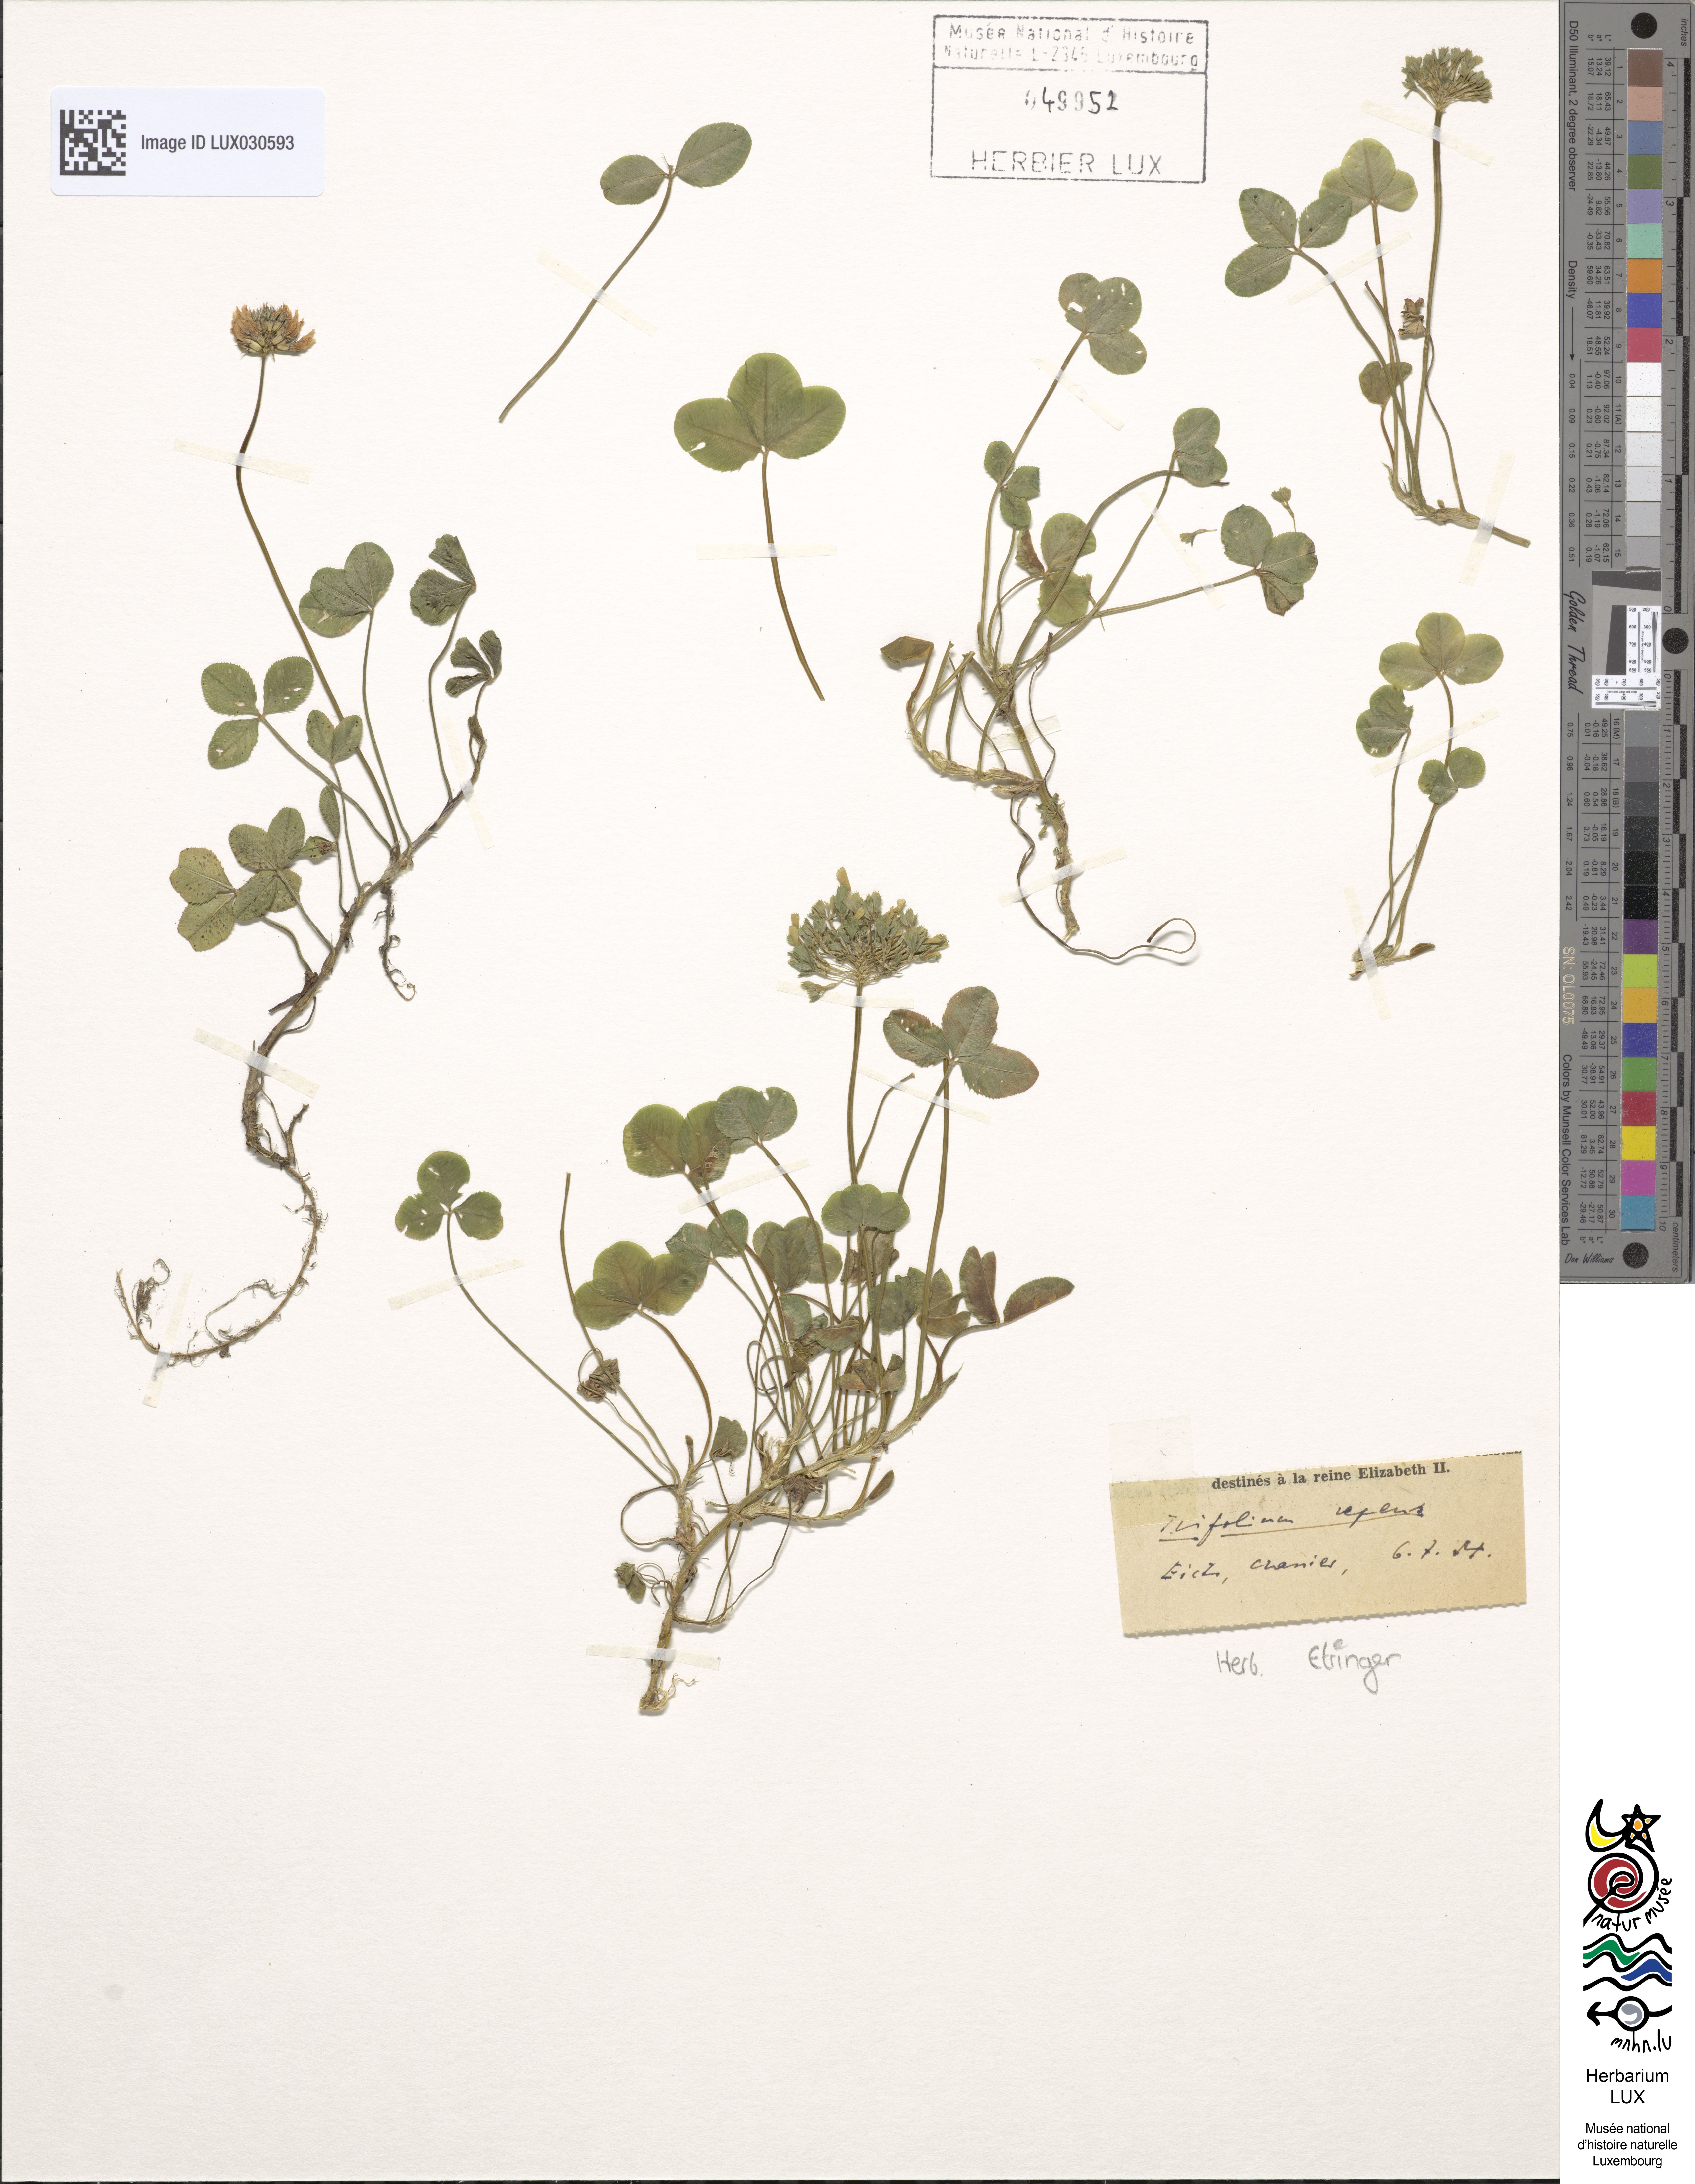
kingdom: Plantae
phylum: Tracheophyta
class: Magnoliopsida
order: Fabales
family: Fabaceae
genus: Trifolium
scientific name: Trifolium repens
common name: White clover
